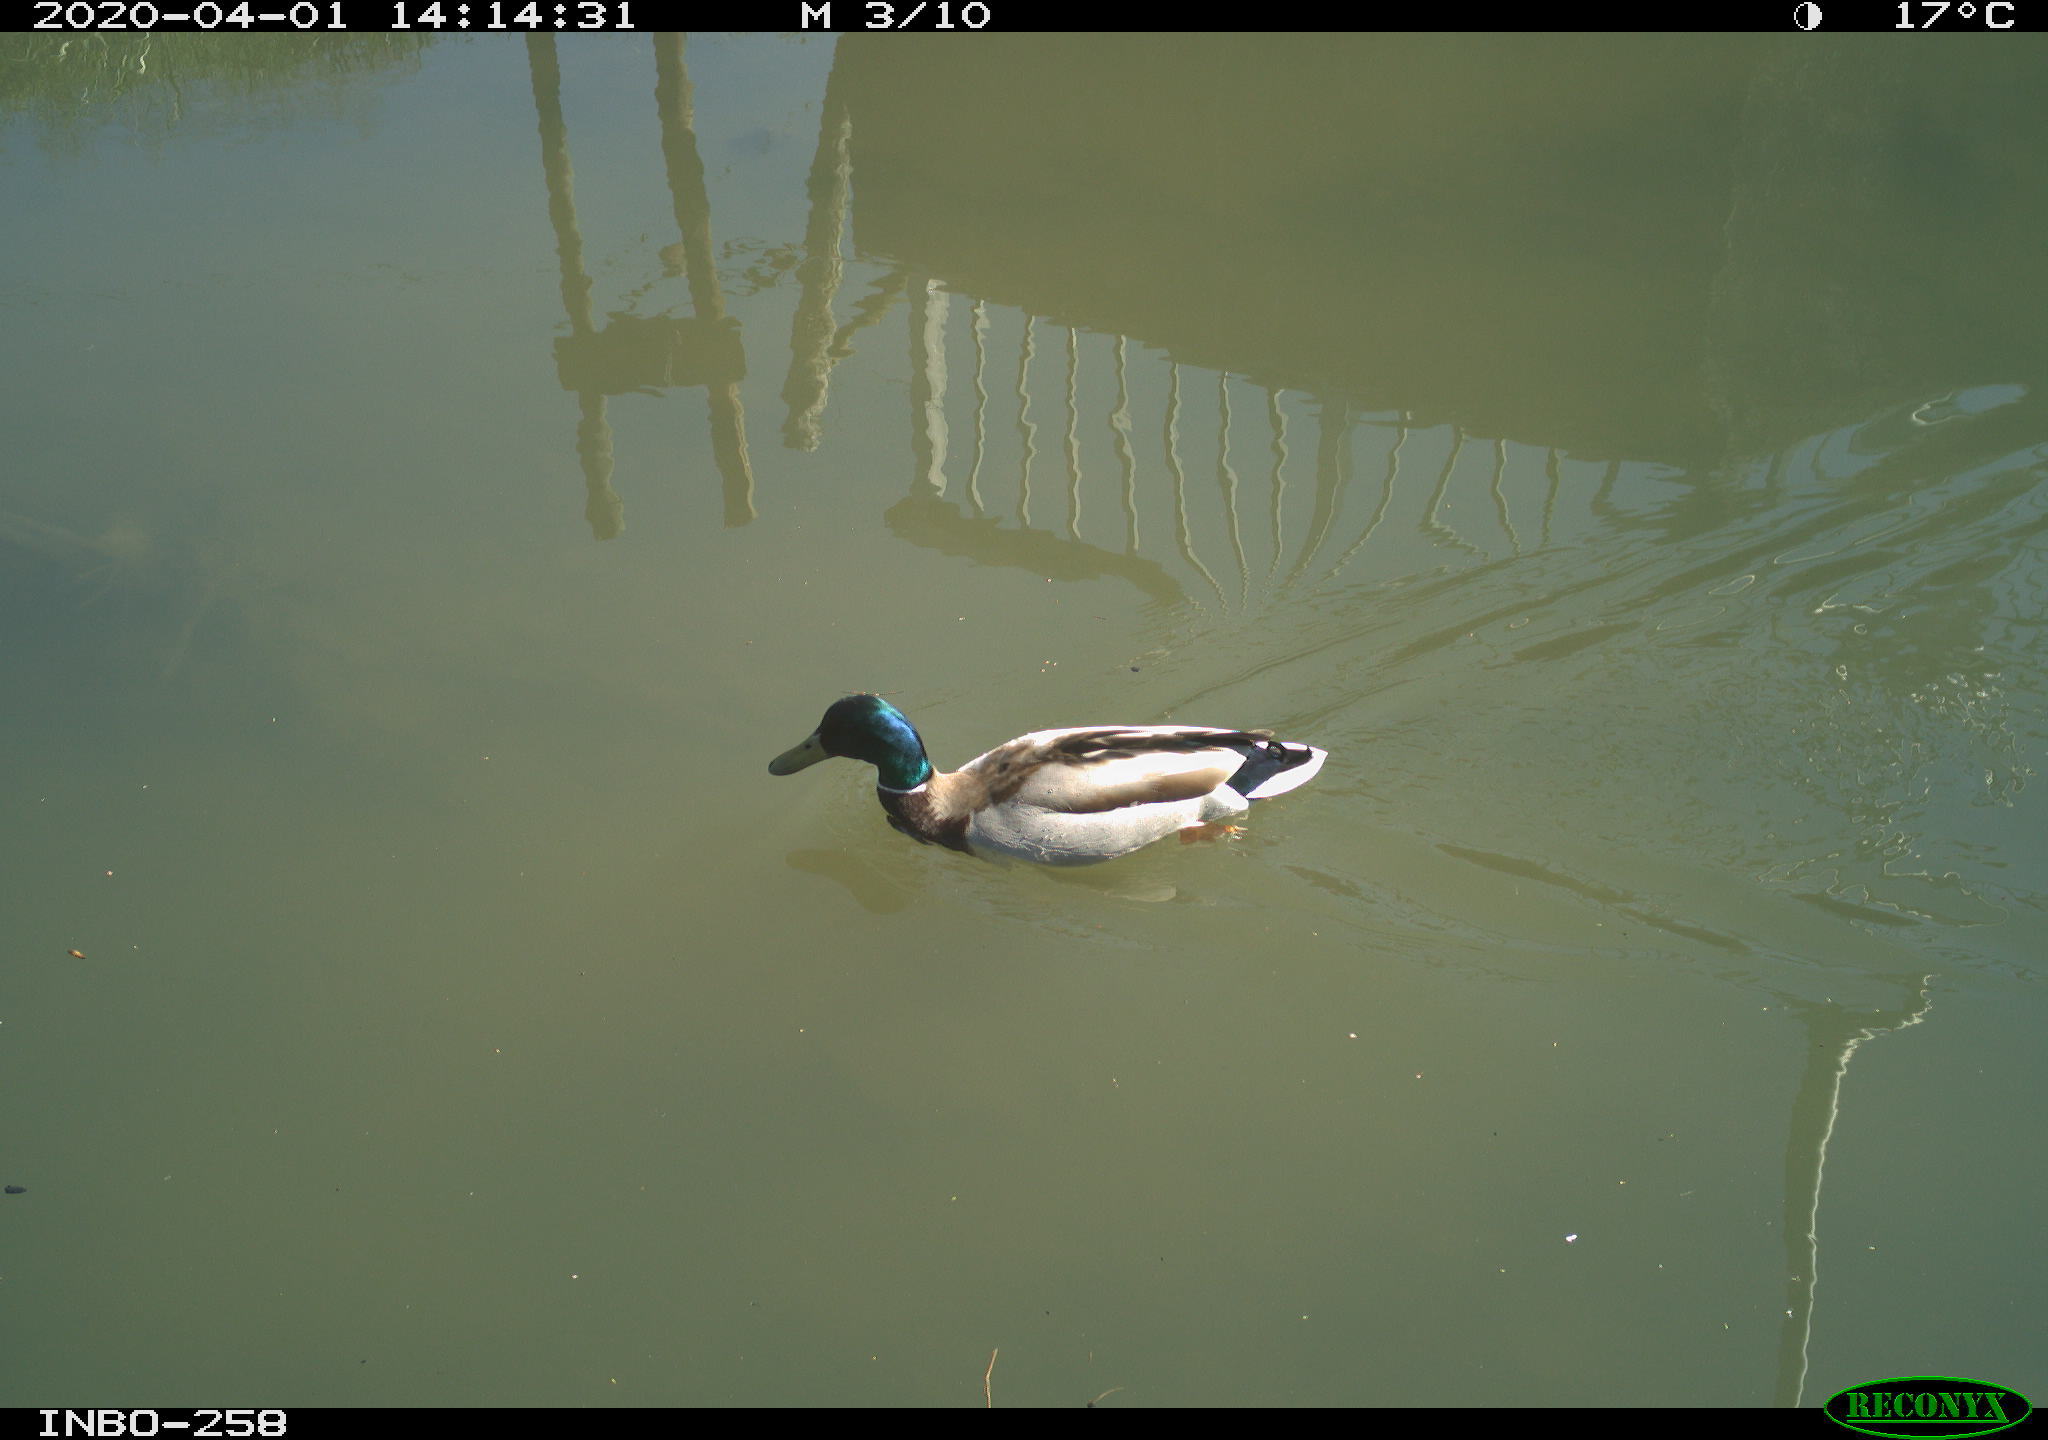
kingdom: Animalia
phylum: Chordata
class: Aves
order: Anseriformes
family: Anatidae
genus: Anas
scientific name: Anas platyrhynchos
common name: Mallard
